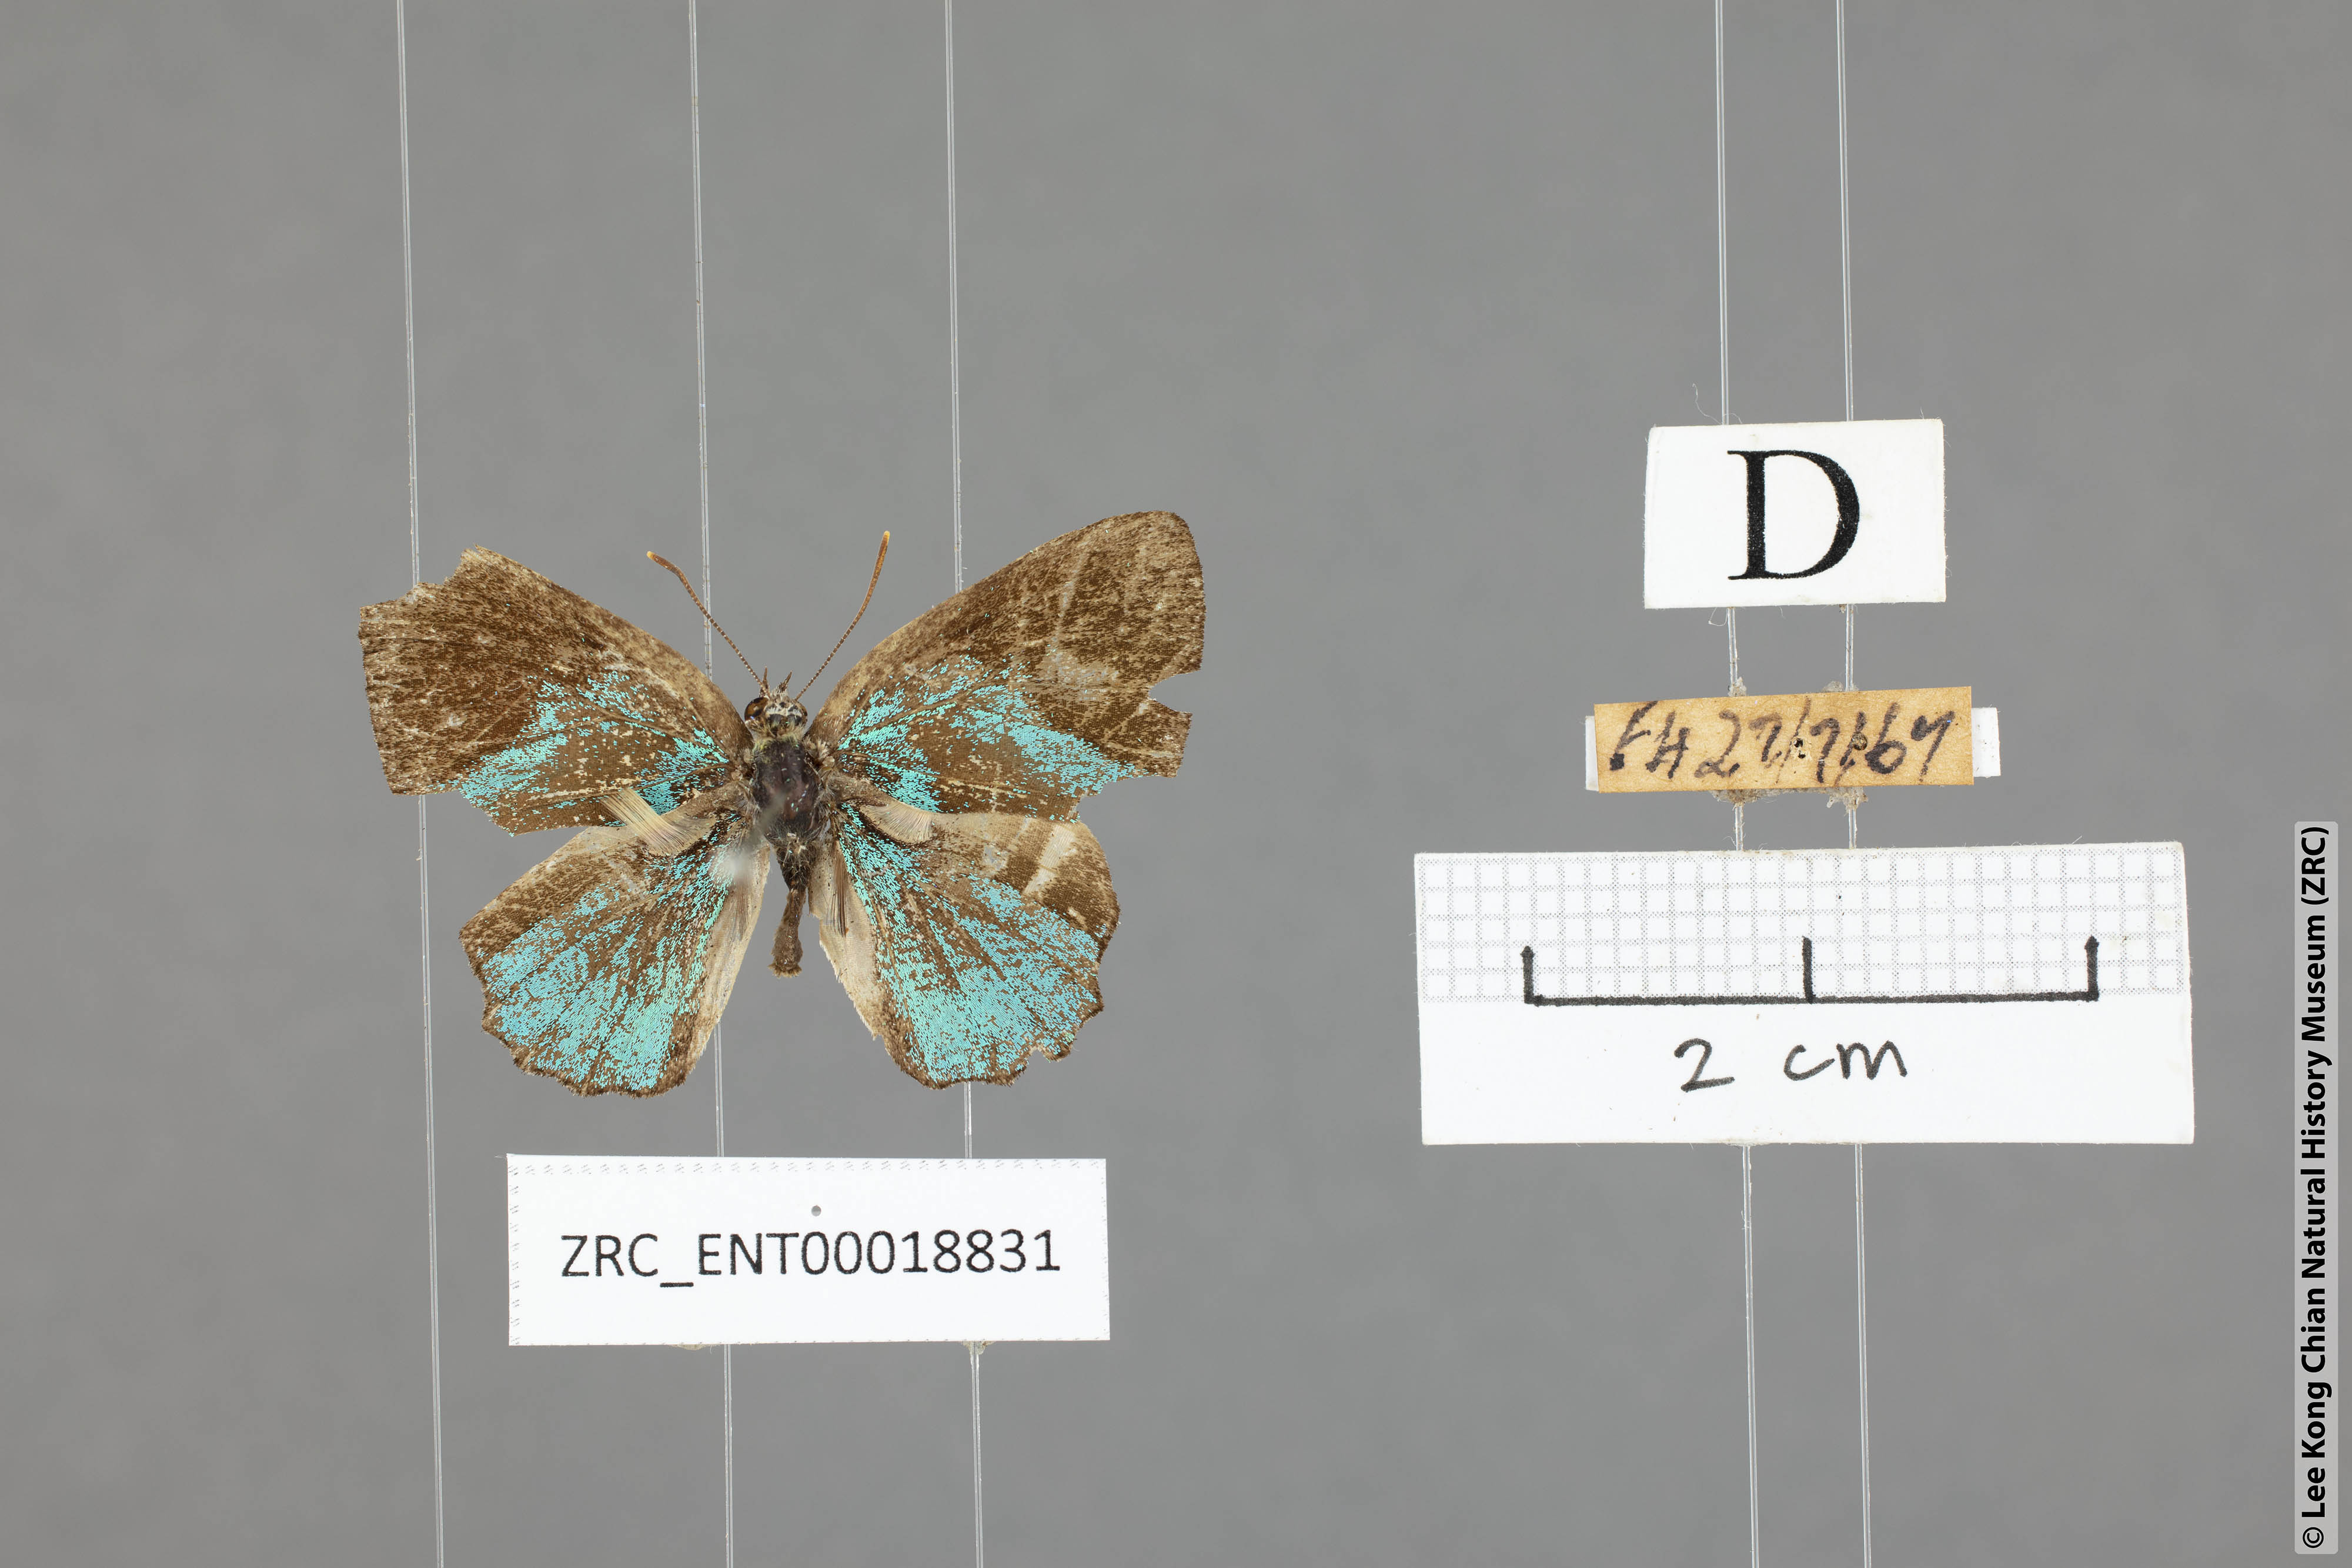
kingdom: Animalia
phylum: Arthropoda
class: Insecta
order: Lepidoptera
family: Lycaenidae
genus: Poritia
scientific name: Poritia promula
